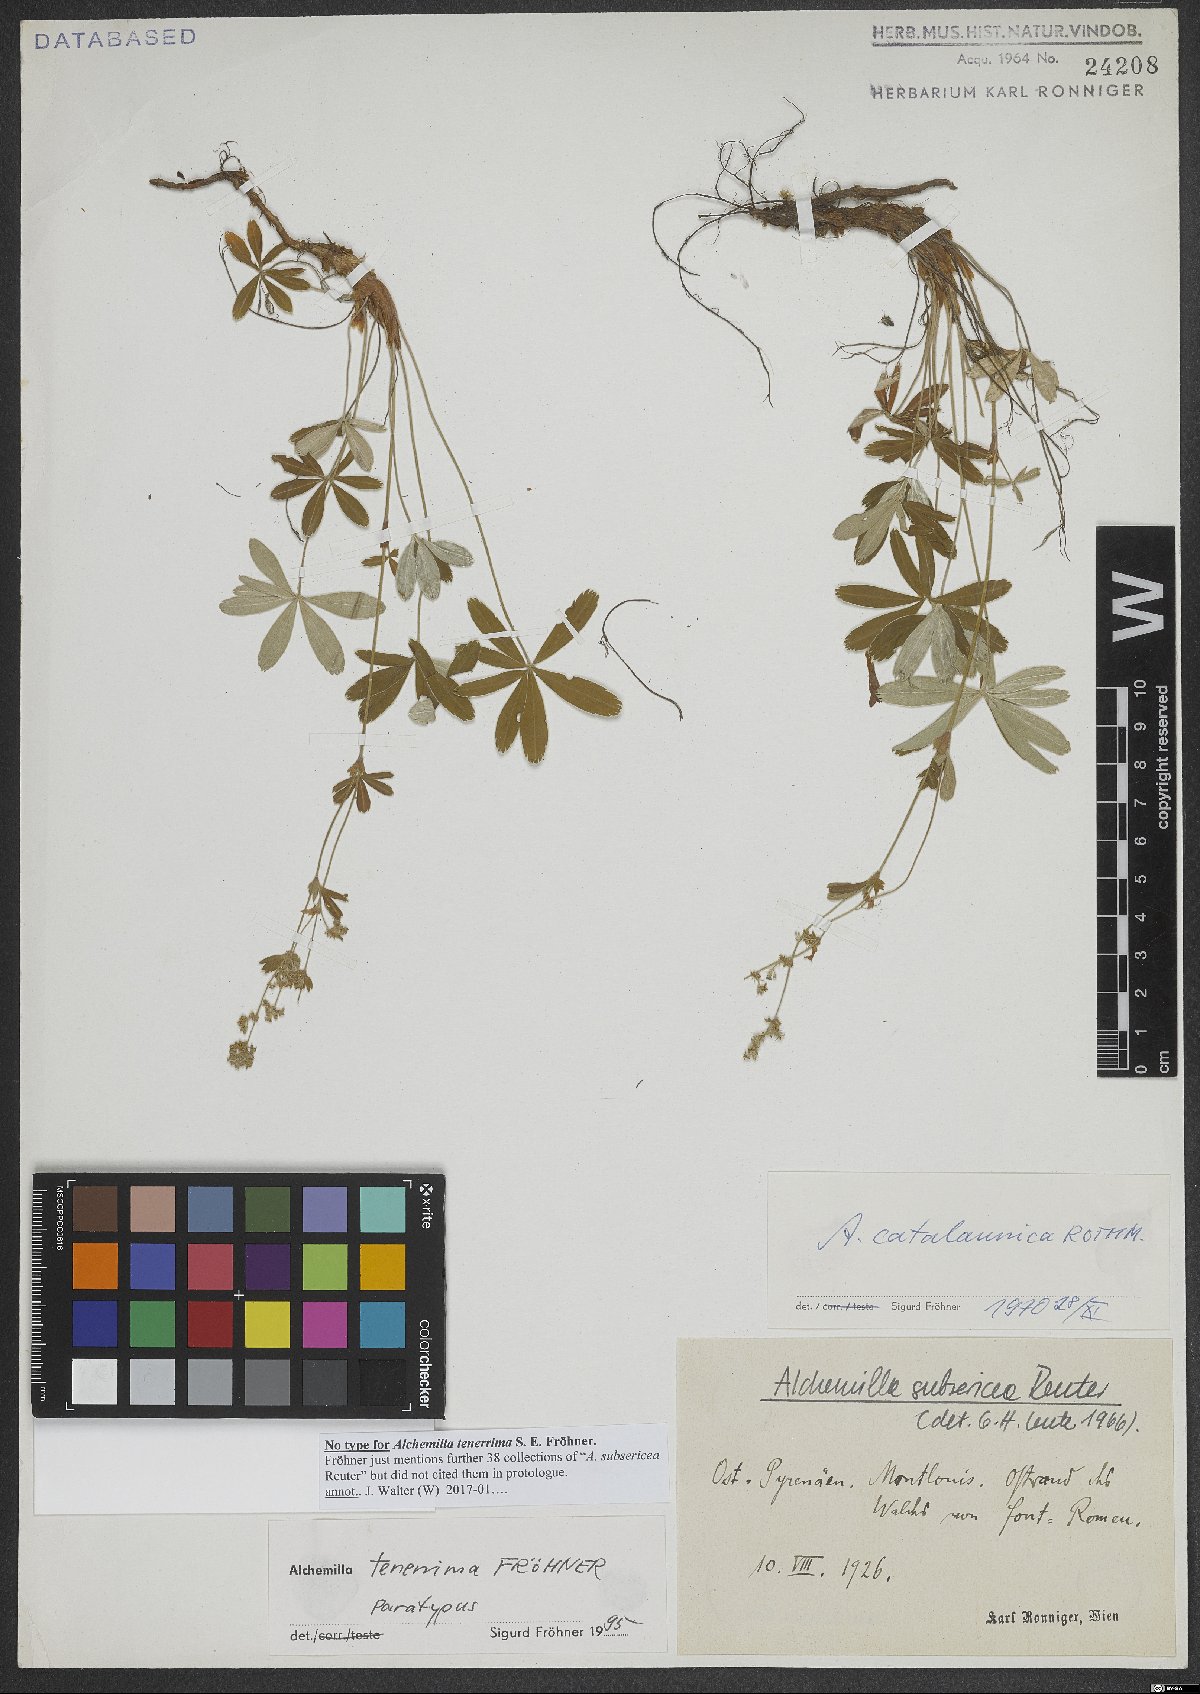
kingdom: Plantae
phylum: Tracheophyta
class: Magnoliopsida
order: Rosales
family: Rosaceae
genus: Alchemilla
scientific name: Alchemilla tenerrima
